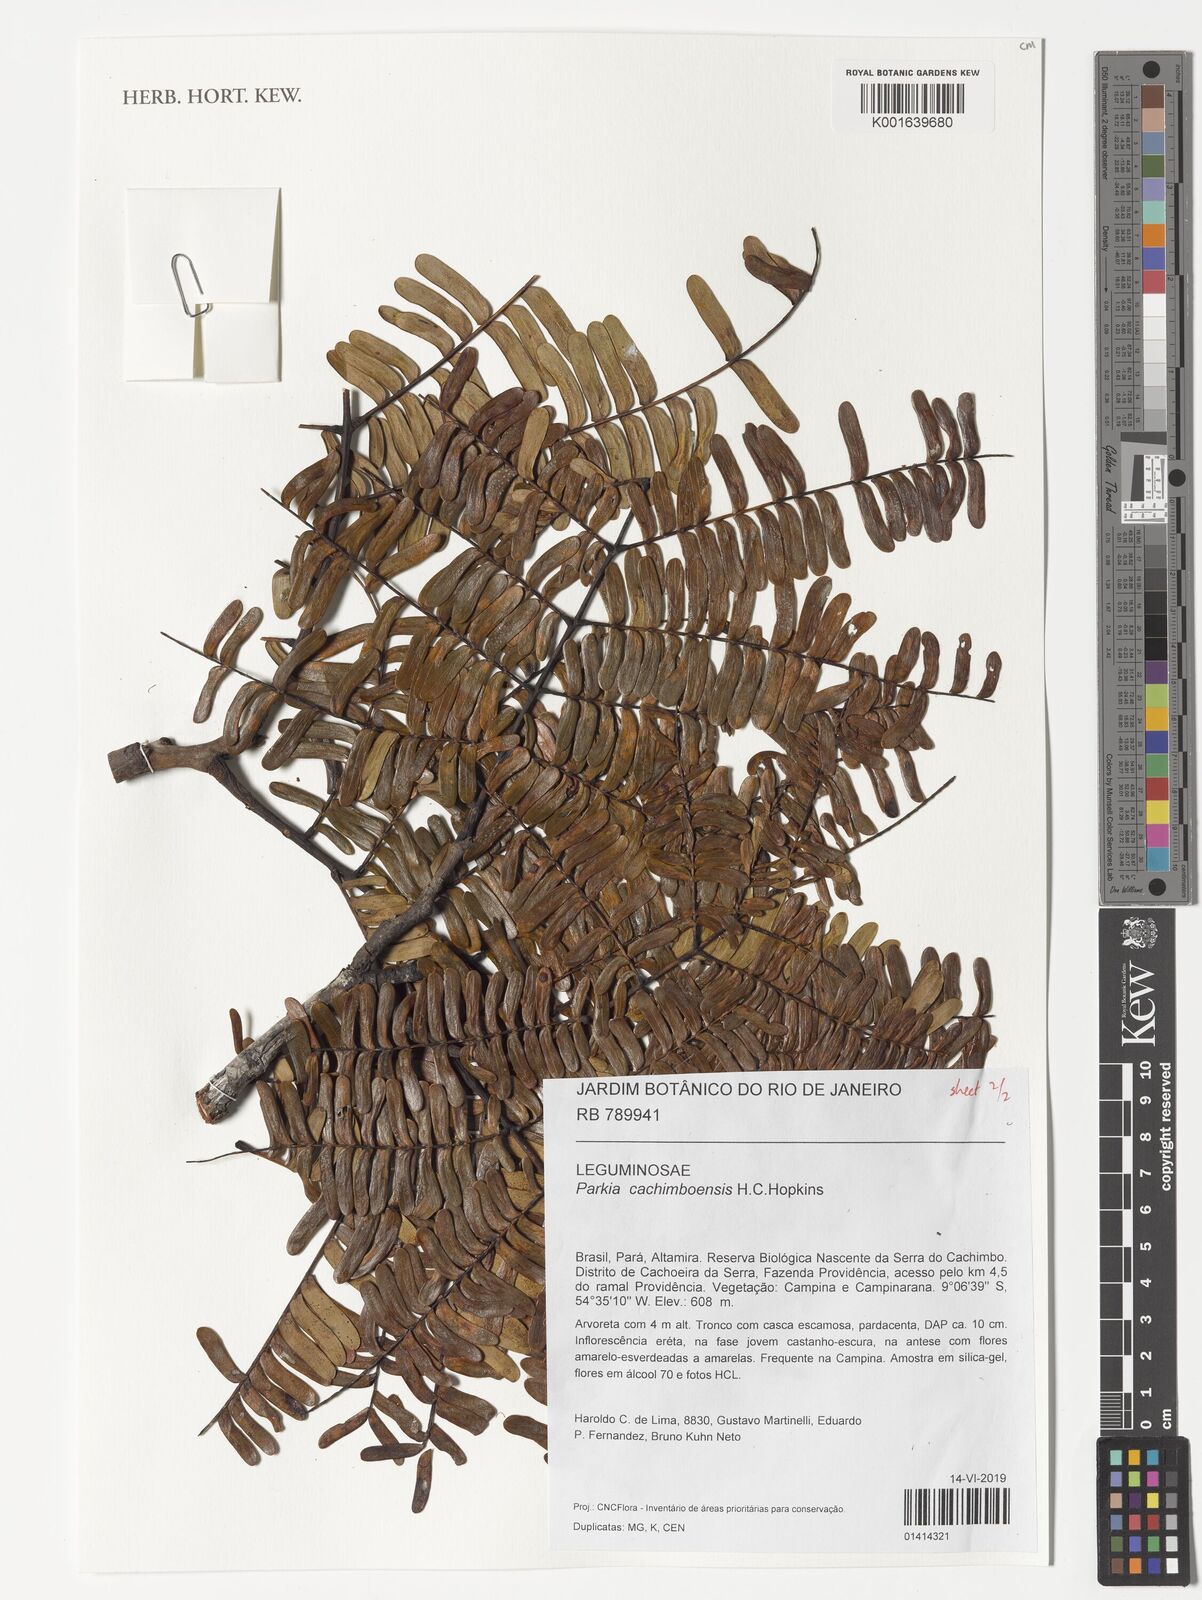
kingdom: Plantae
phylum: Tracheophyta
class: Magnoliopsida
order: Fabales
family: Fabaceae
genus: Parkia
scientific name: Parkia cachimboensis
